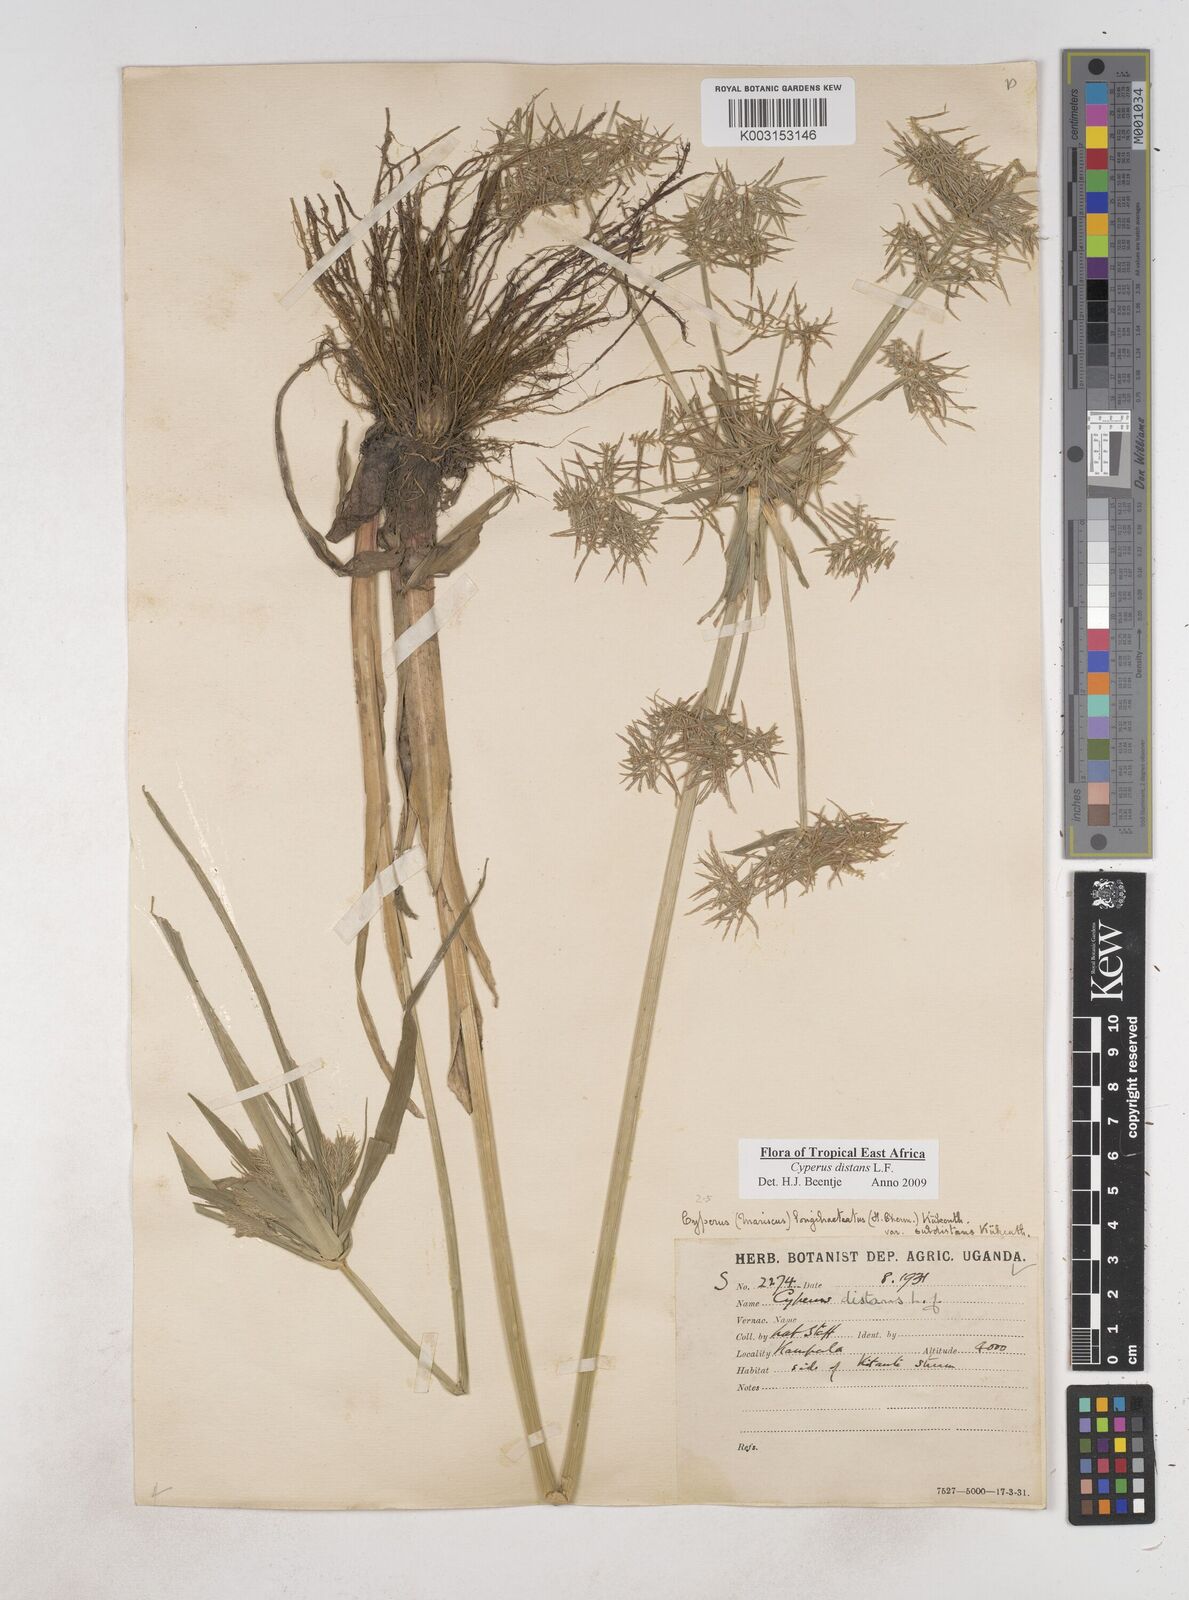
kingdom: Plantae
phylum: Tracheophyta
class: Liliopsida
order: Poales
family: Cyperaceae
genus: Cyperus
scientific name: Cyperus distans
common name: Slender cyperus
